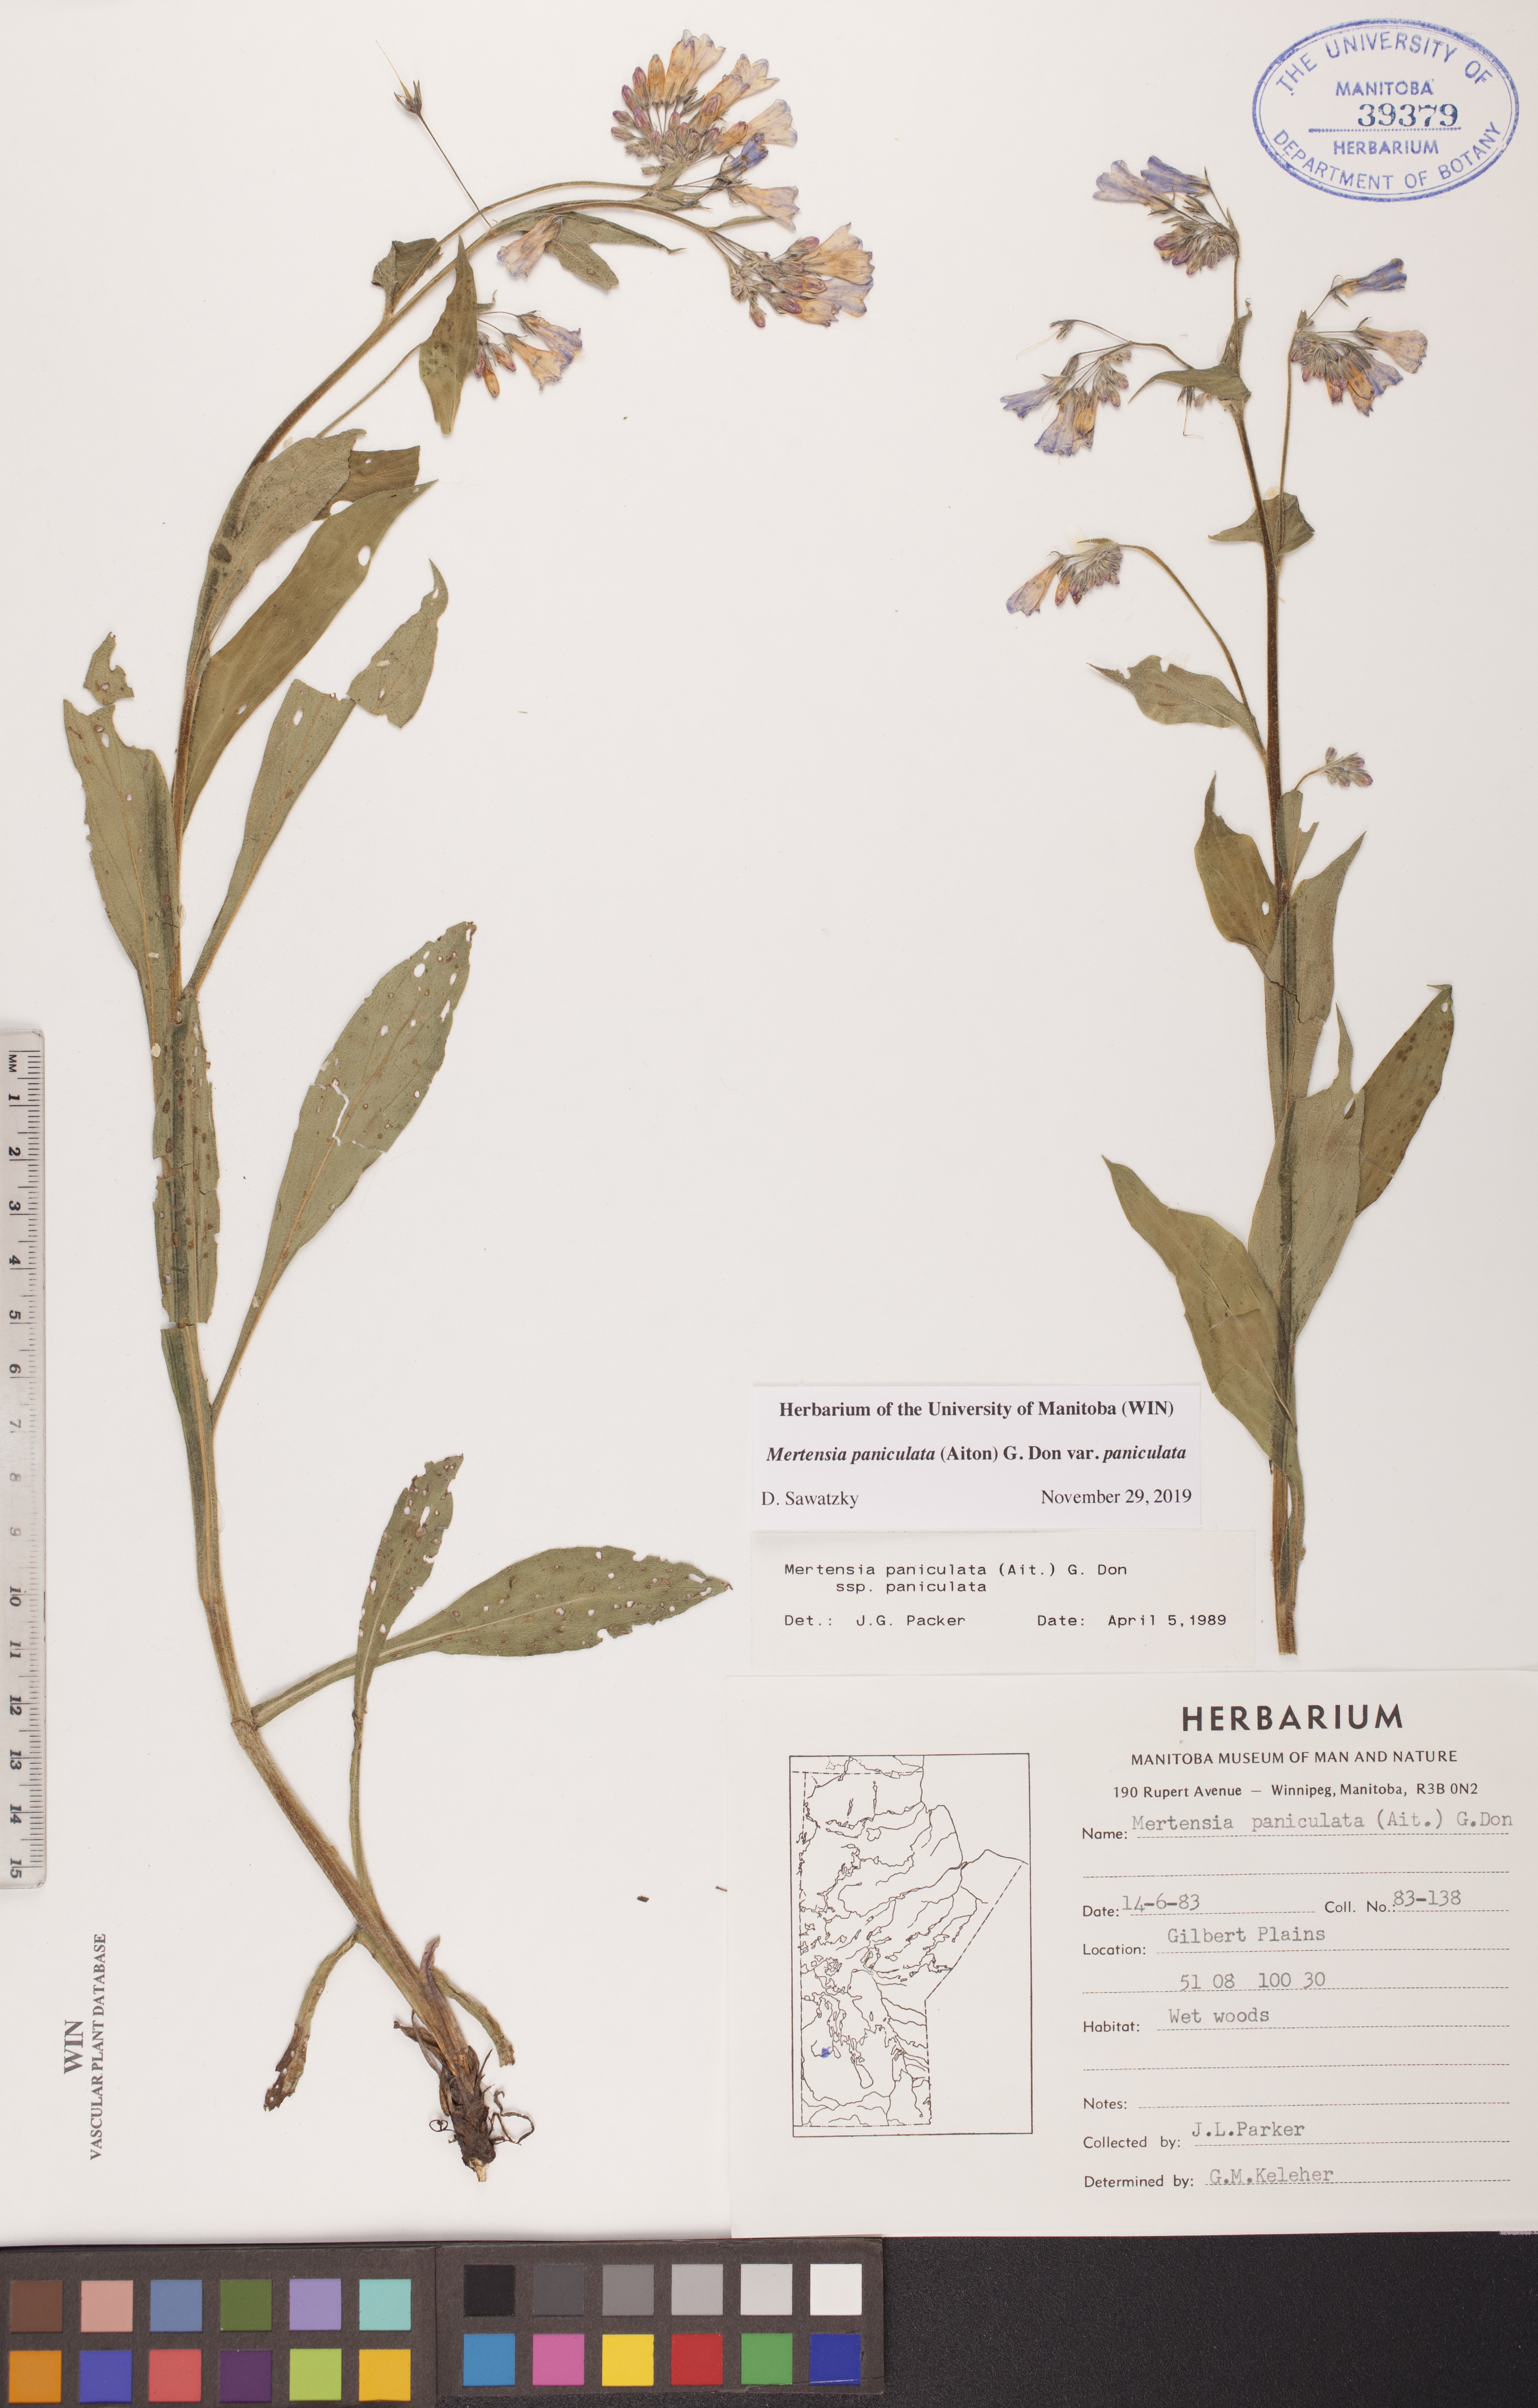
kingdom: Plantae
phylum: Tracheophyta
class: Magnoliopsida
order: Boraginales
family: Boraginaceae
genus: Mertensia
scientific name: Mertensia paniculata
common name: Panicled bluebells
